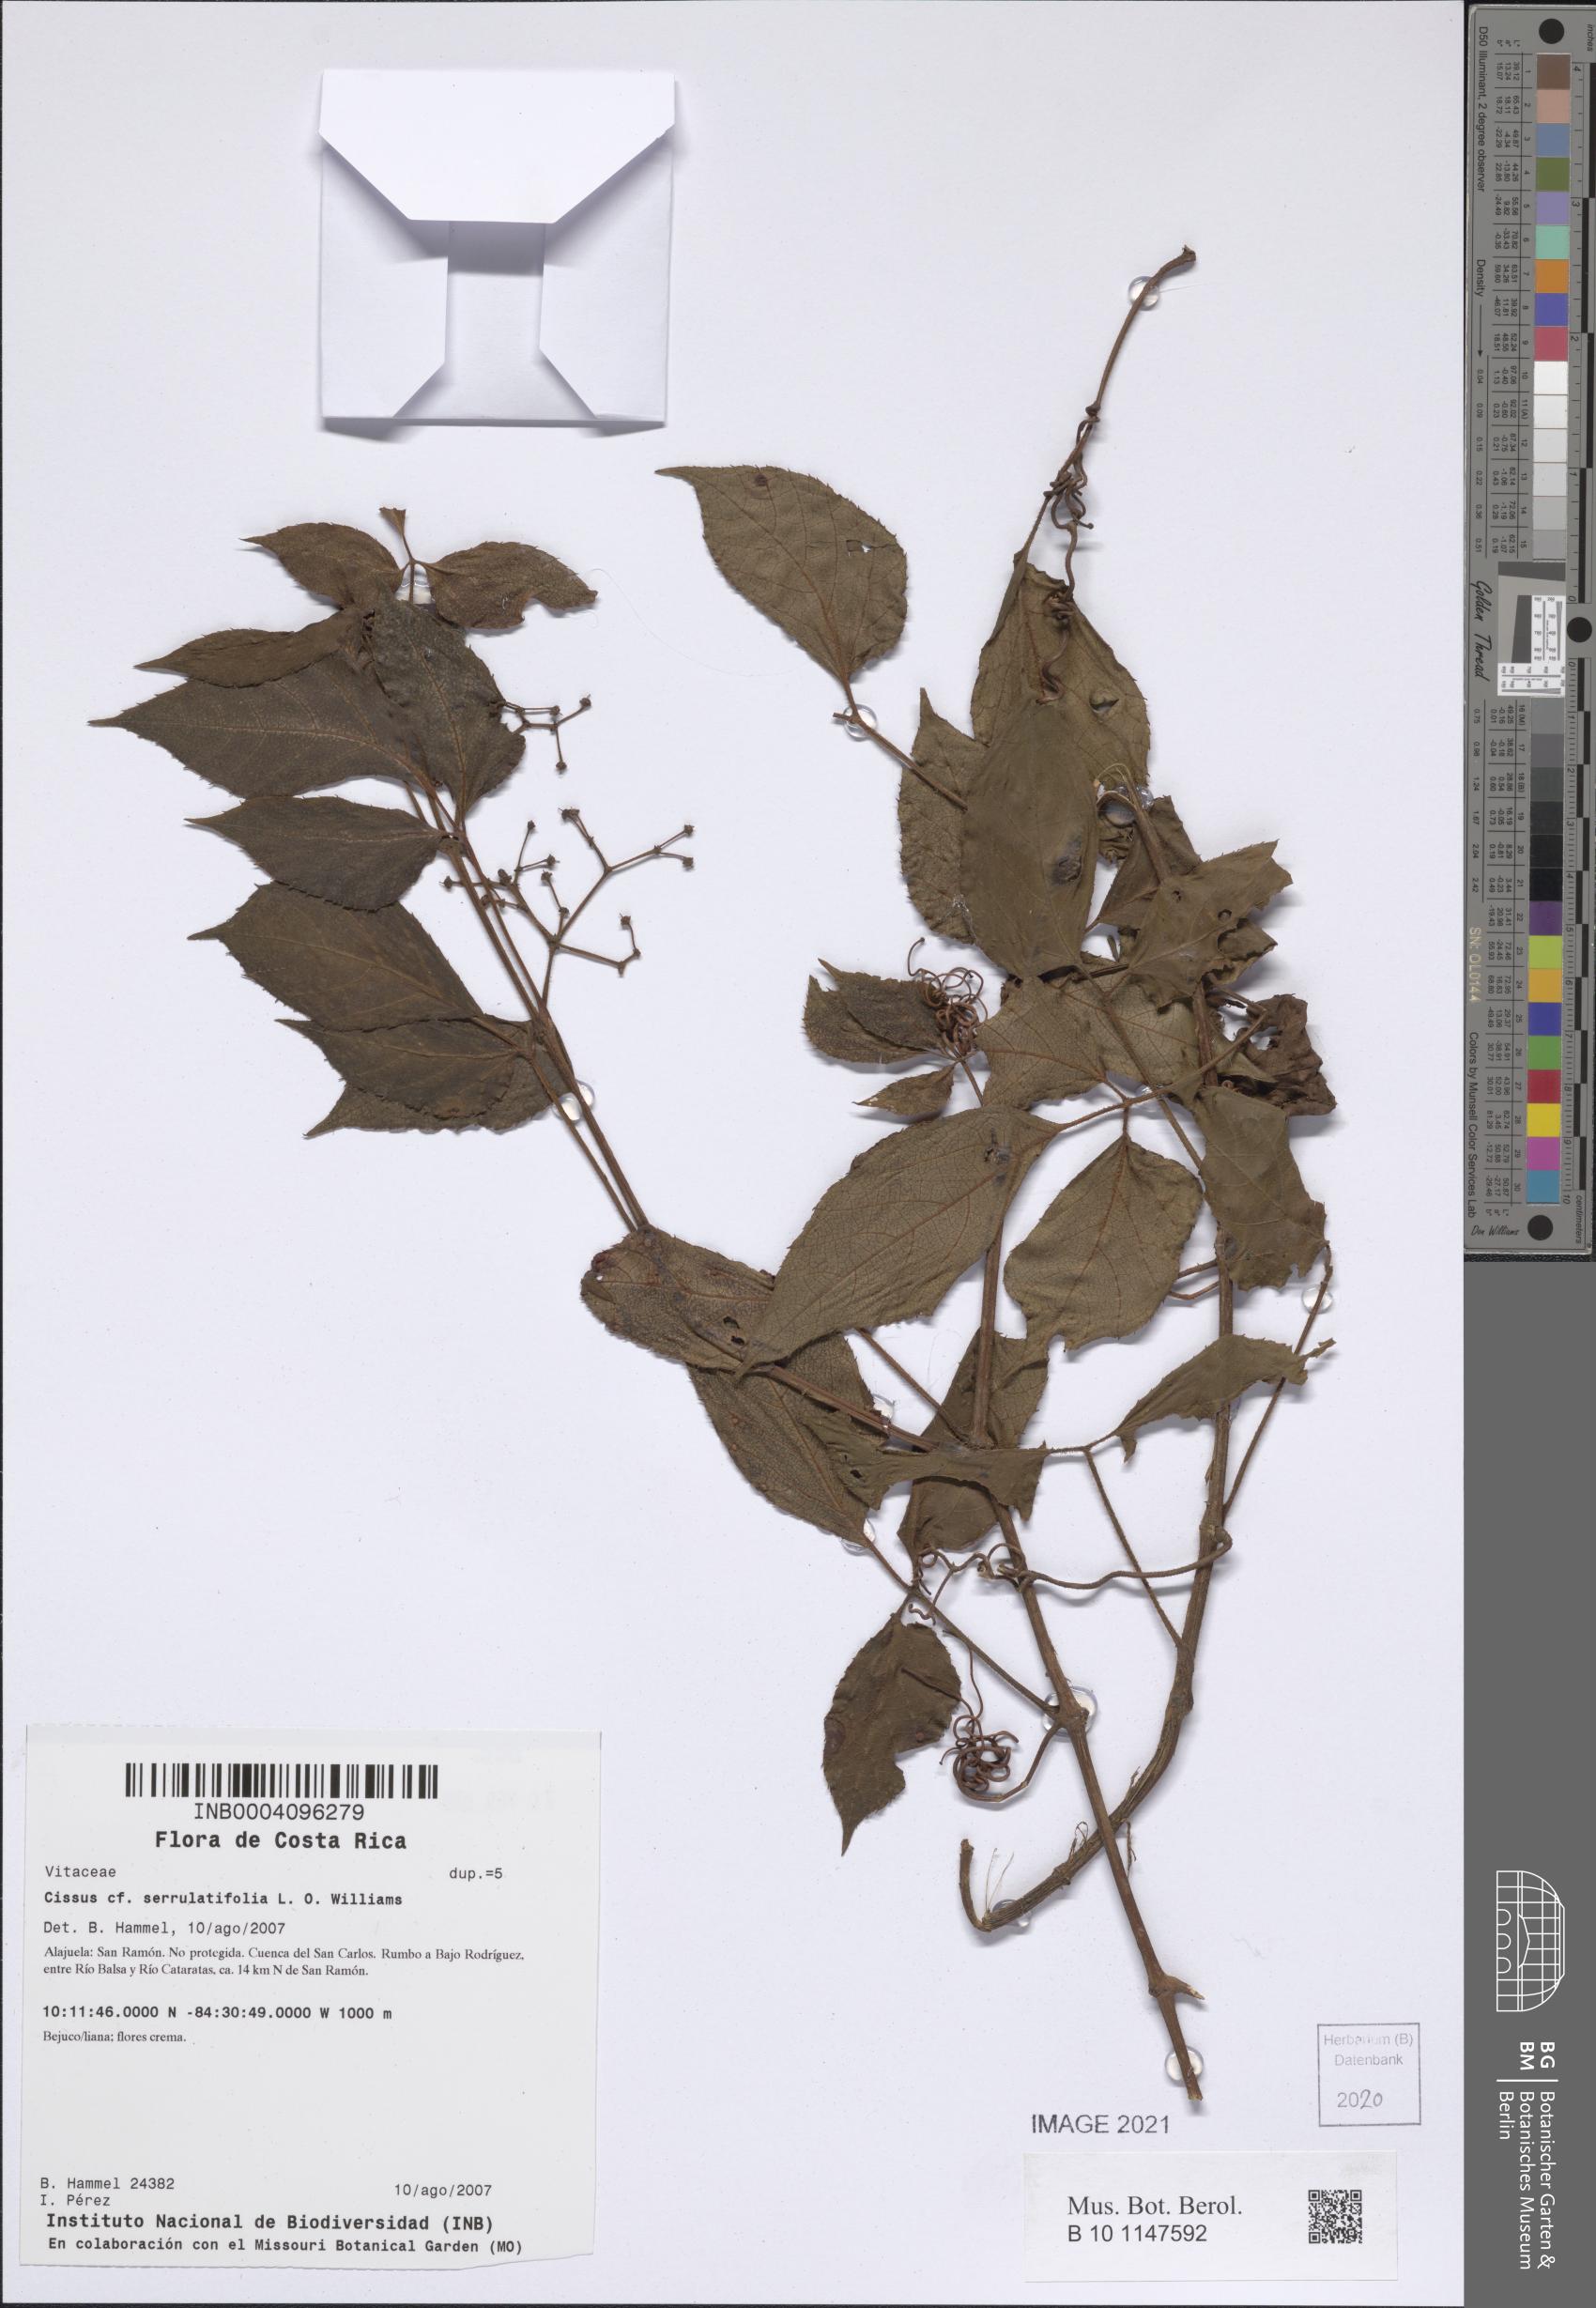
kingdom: Plantae
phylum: Tracheophyta
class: Magnoliopsida
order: Vitales
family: Vitaceae
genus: Cissus
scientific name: Cissus serrulatifolia
